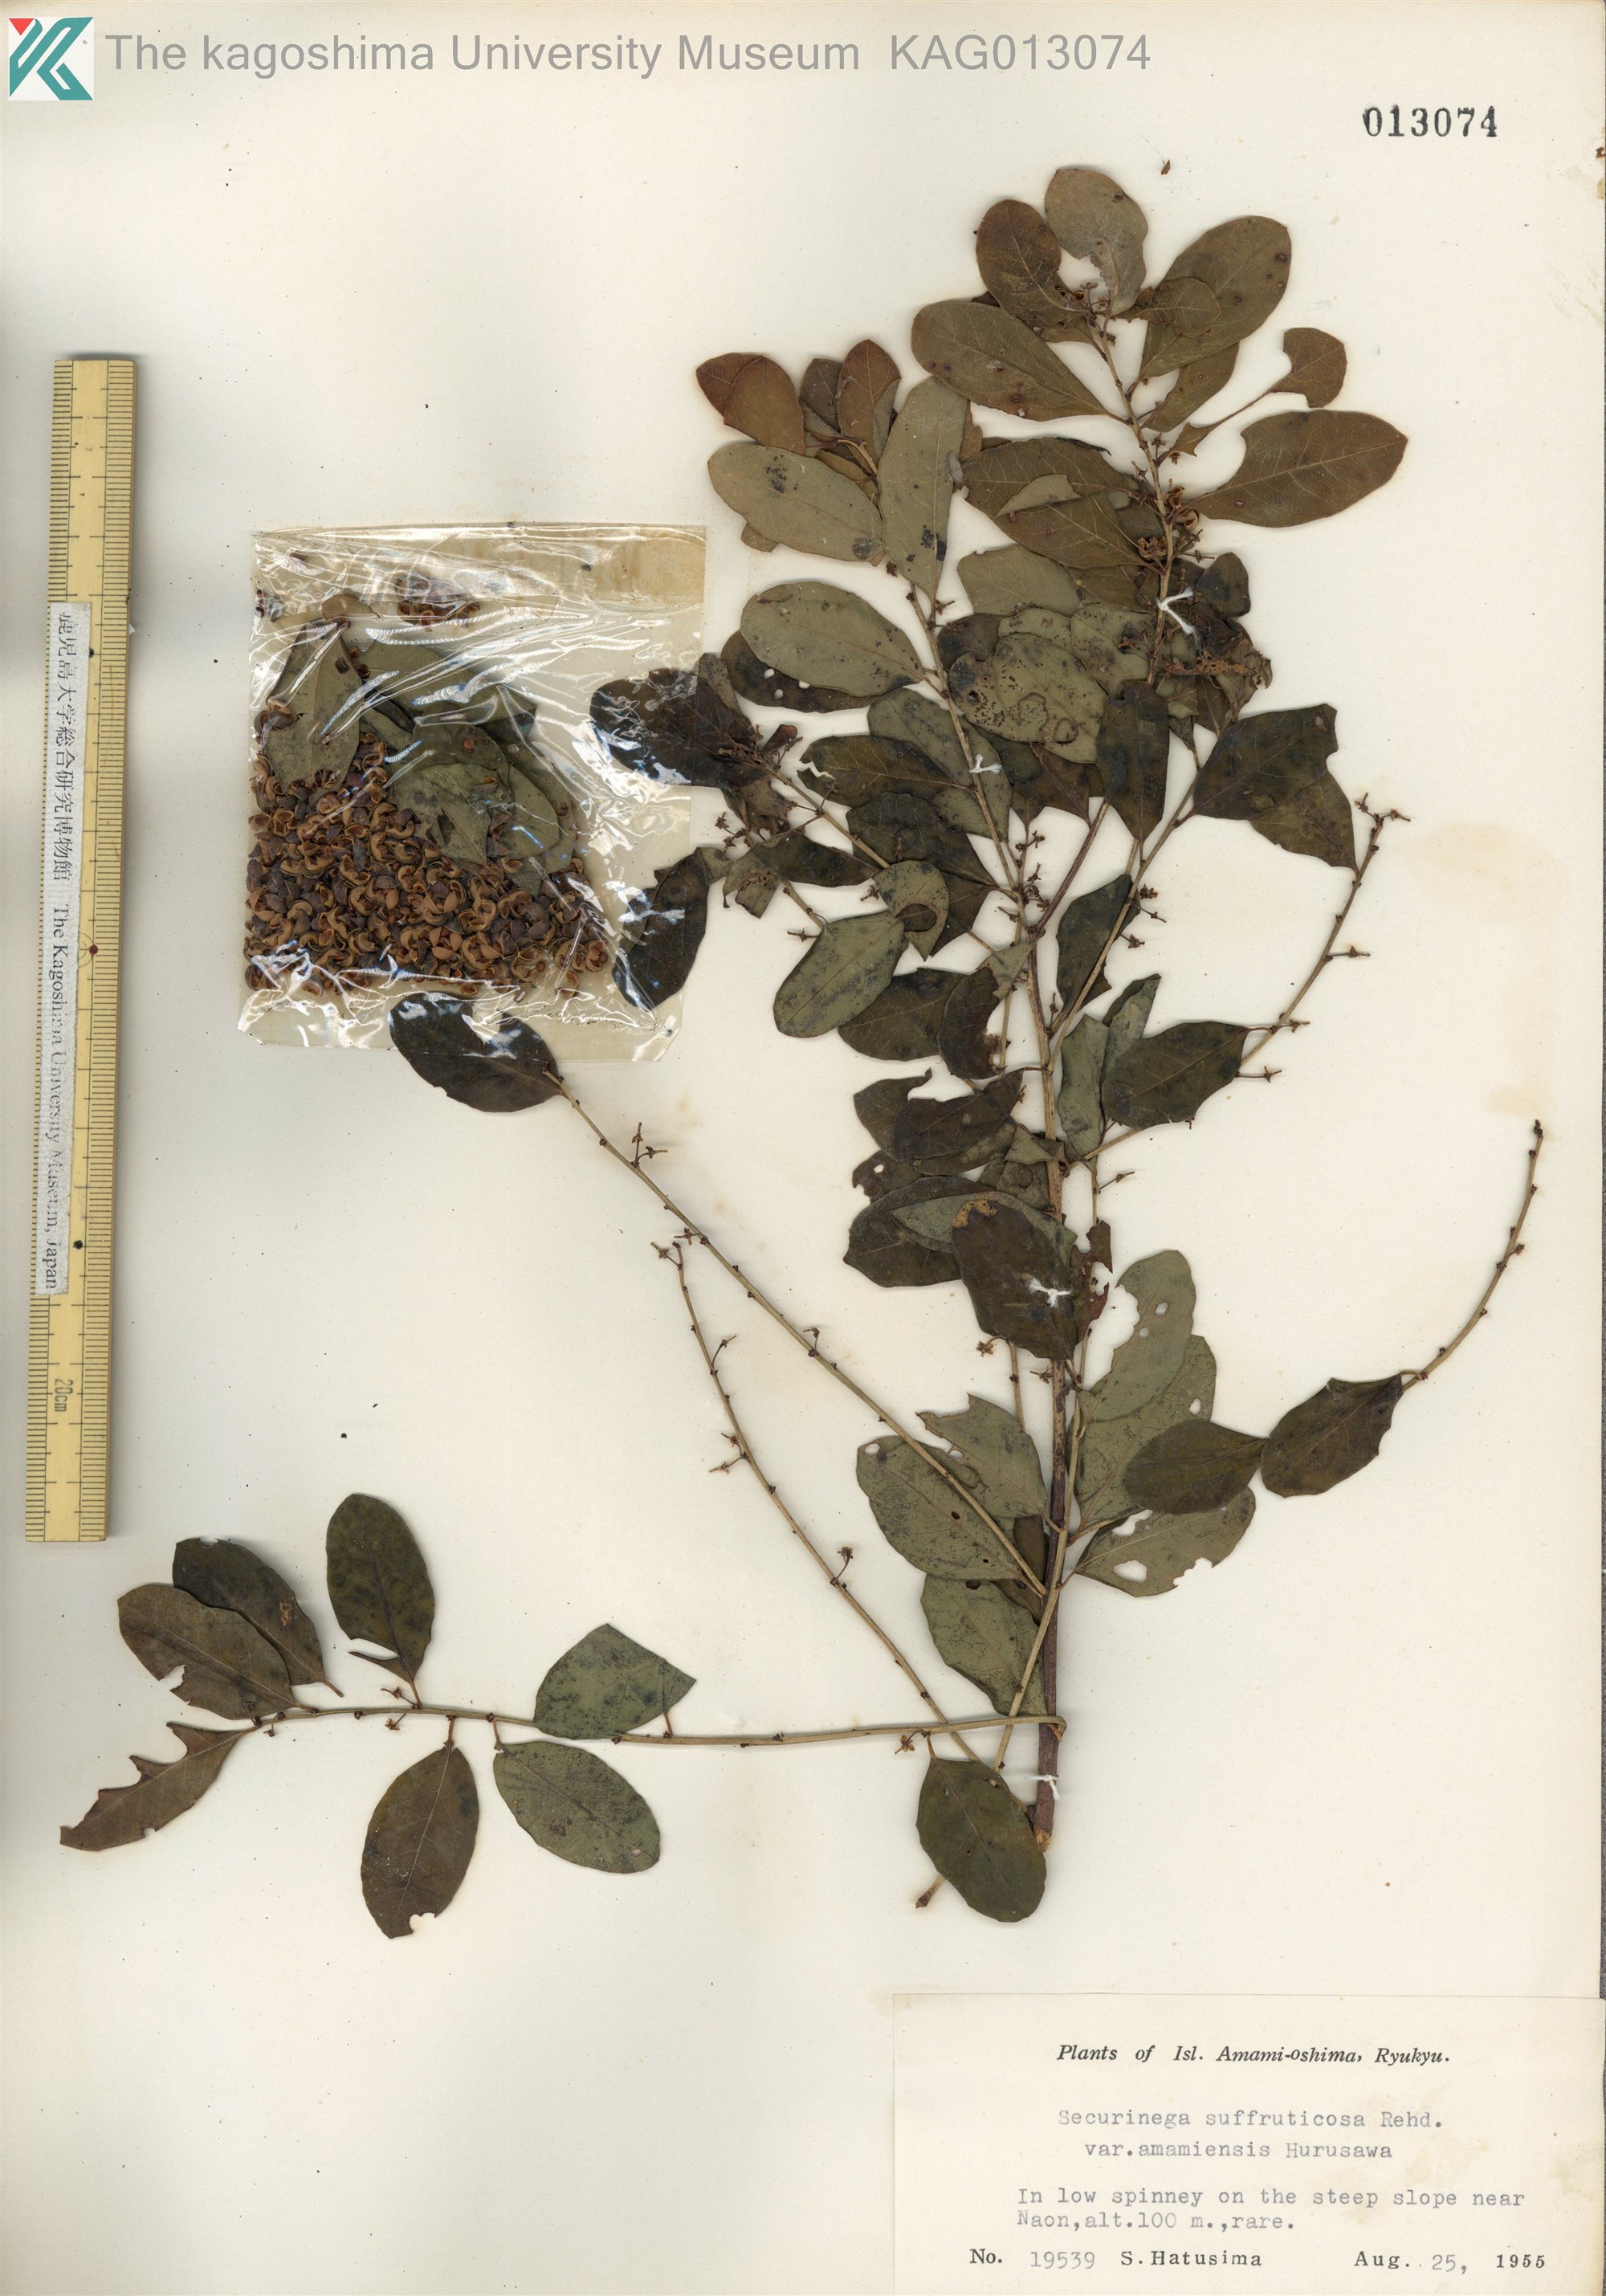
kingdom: Plantae
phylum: Tracheophyta
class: Magnoliopsida
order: Malpighiales
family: Phyllanthaceae
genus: Flueggea
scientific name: Flueggea suffruticosa
